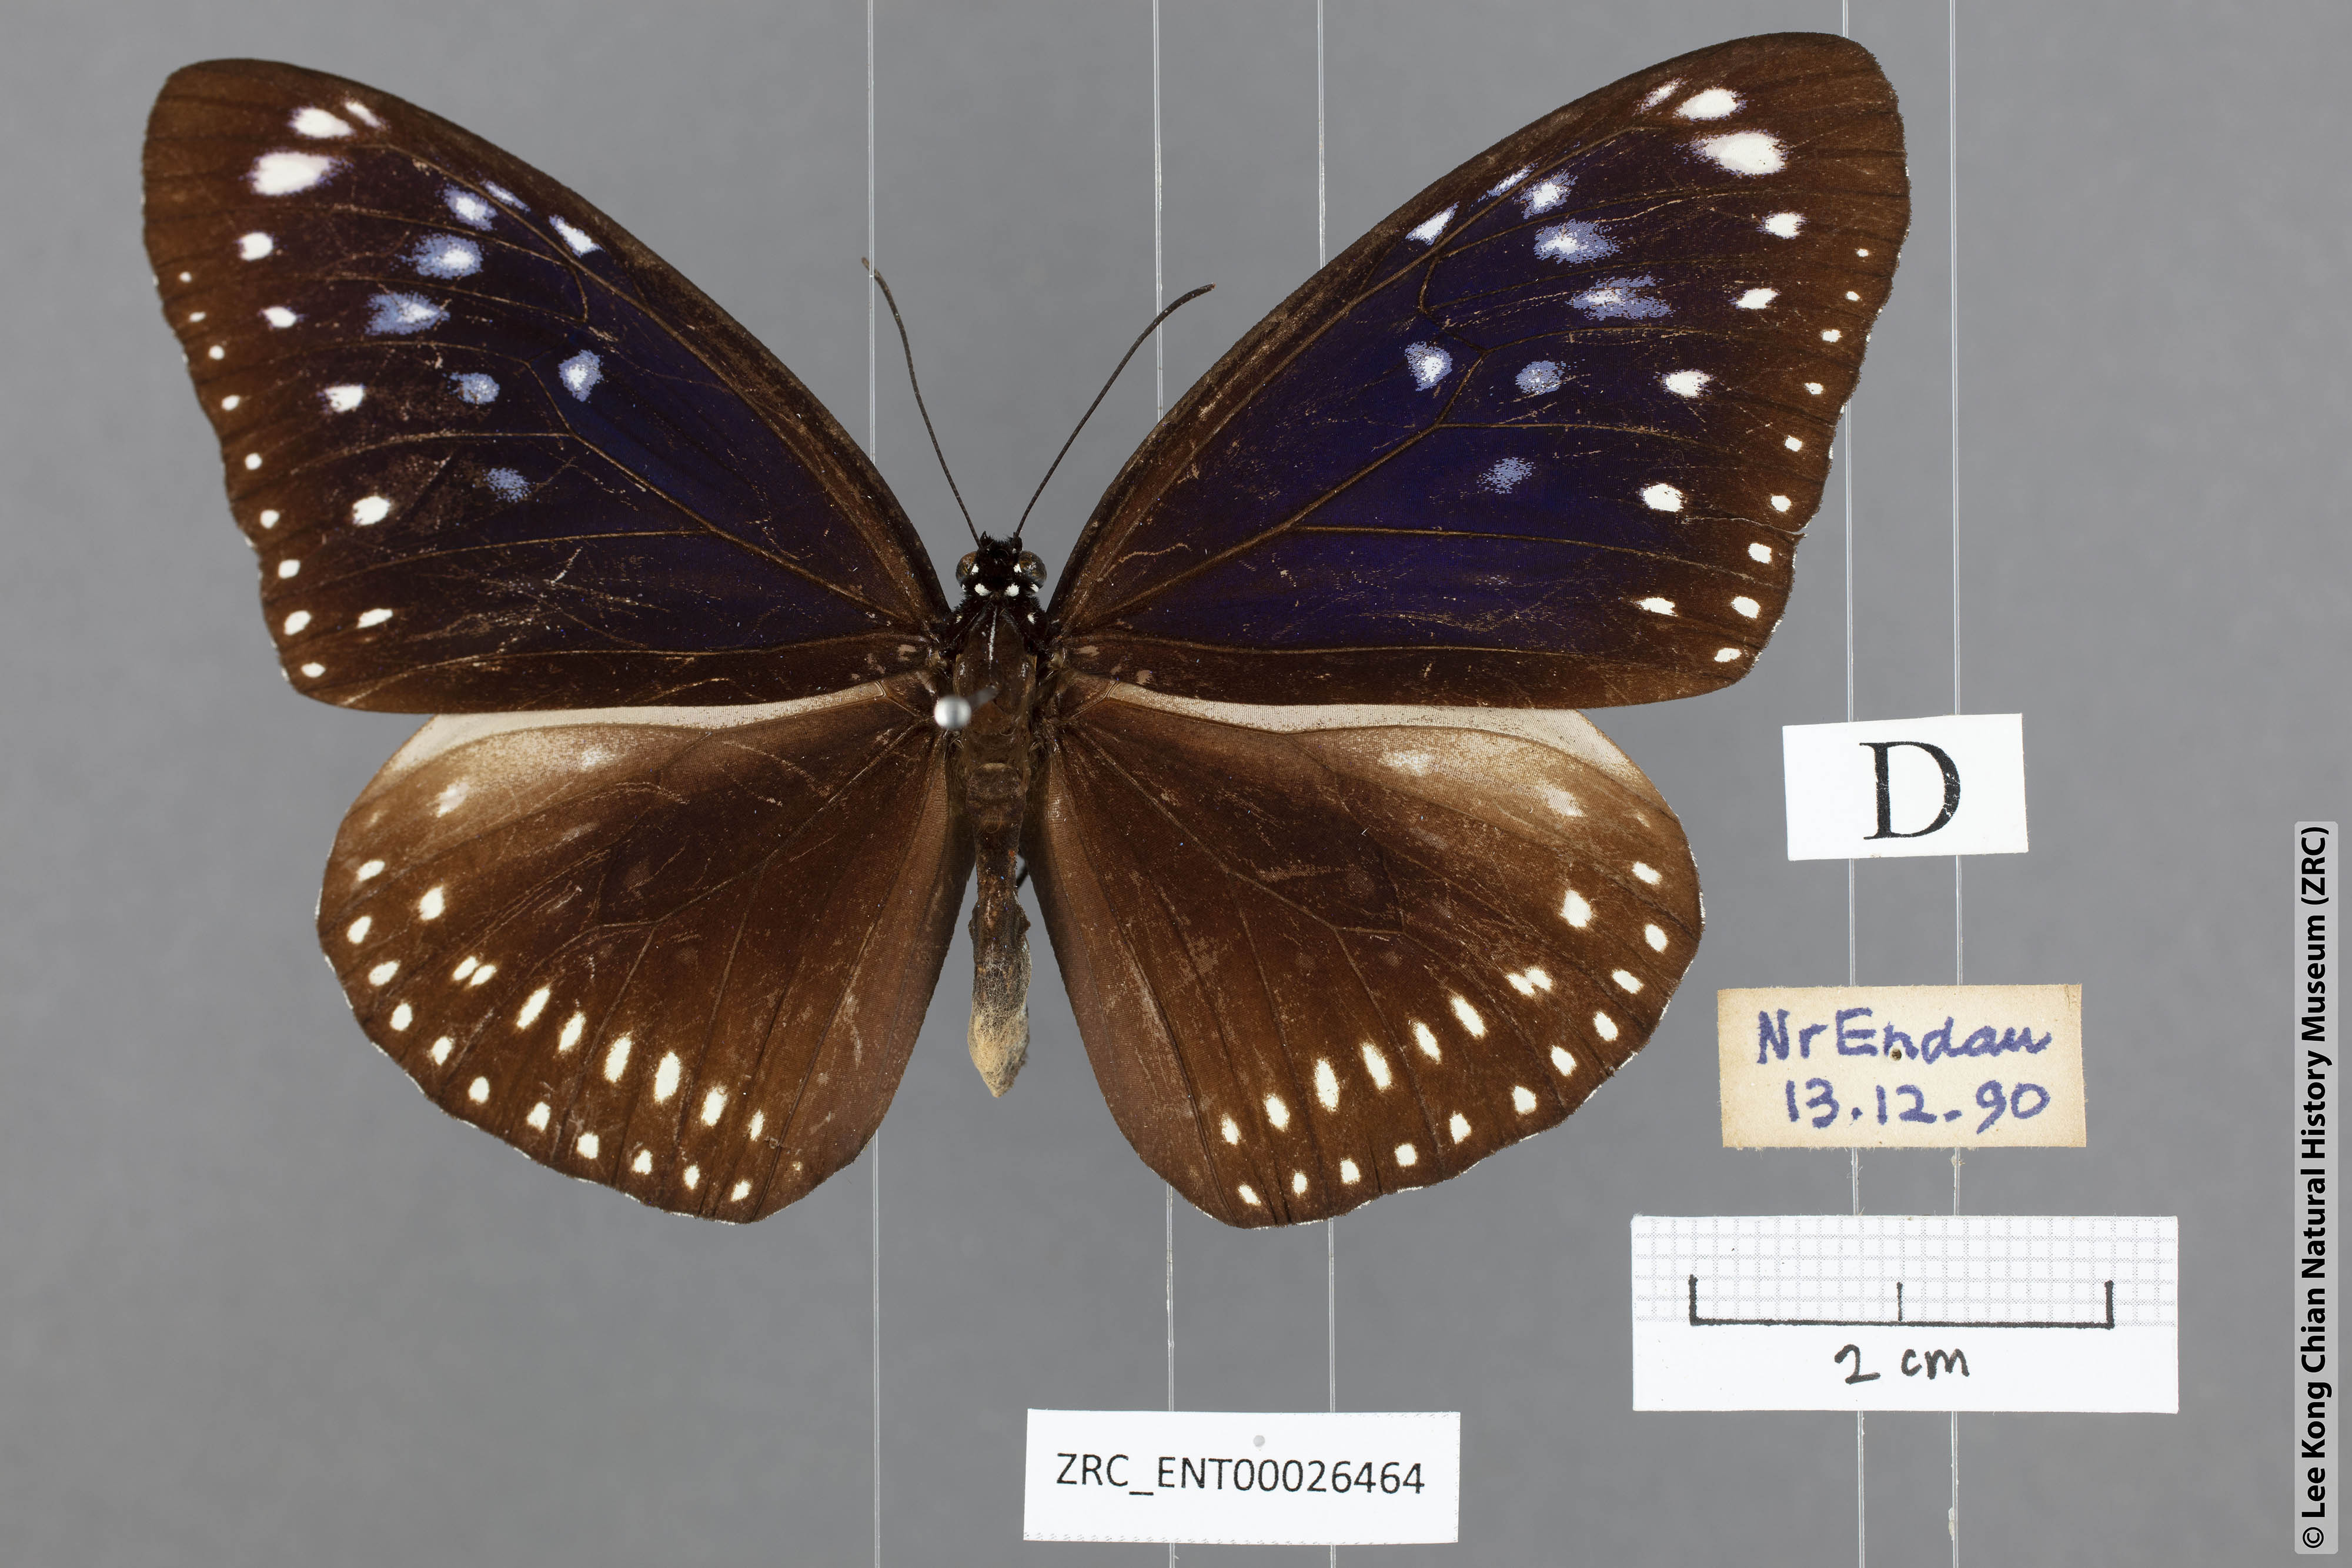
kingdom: Animalia
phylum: Arthropoda
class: Insecta
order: Lepidoptera
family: Nymphalidae
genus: Euploea
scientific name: Euploea midamus
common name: Blue-spotted crow butterfly
